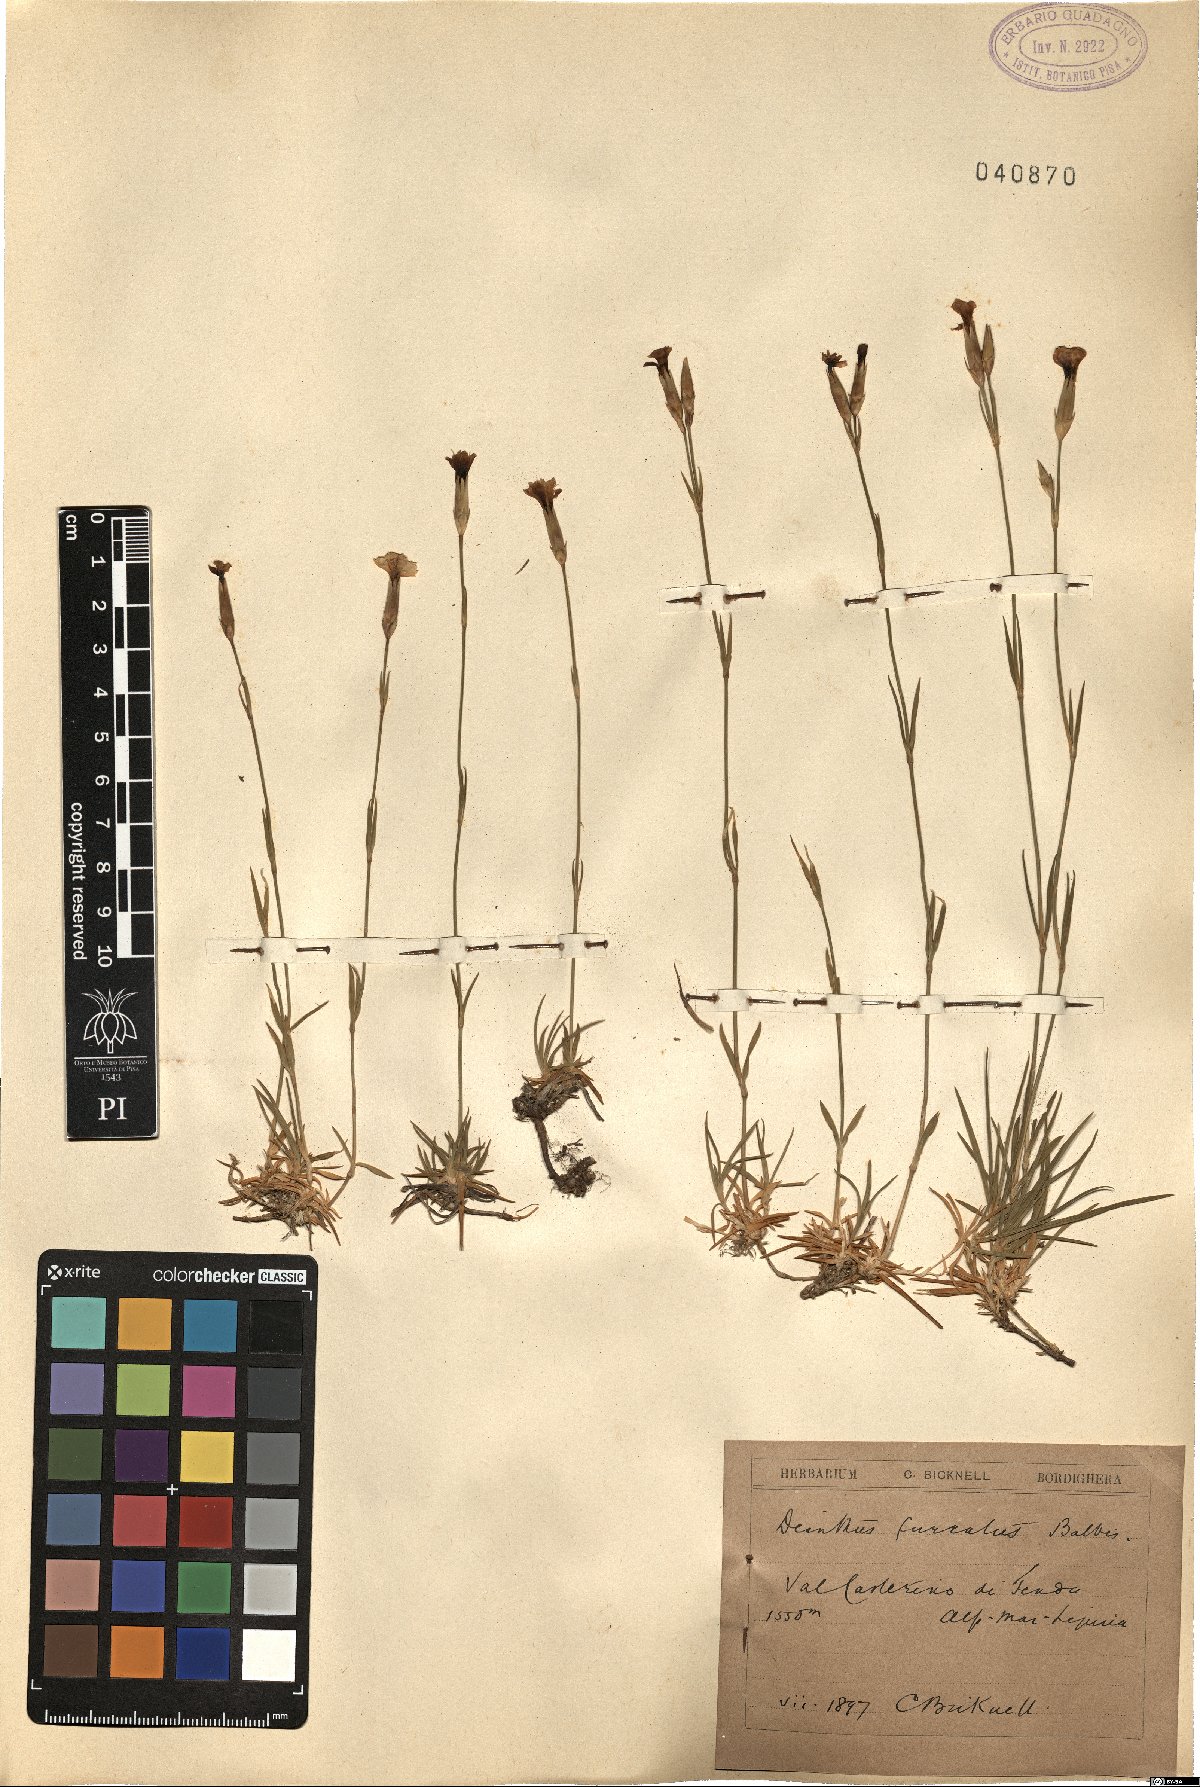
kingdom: Plantae
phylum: Tracheophyta
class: Magnoliopsida
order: Caryophyllales
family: Caryophyllaceae
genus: Dianthus
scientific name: Dianthus furcatus
